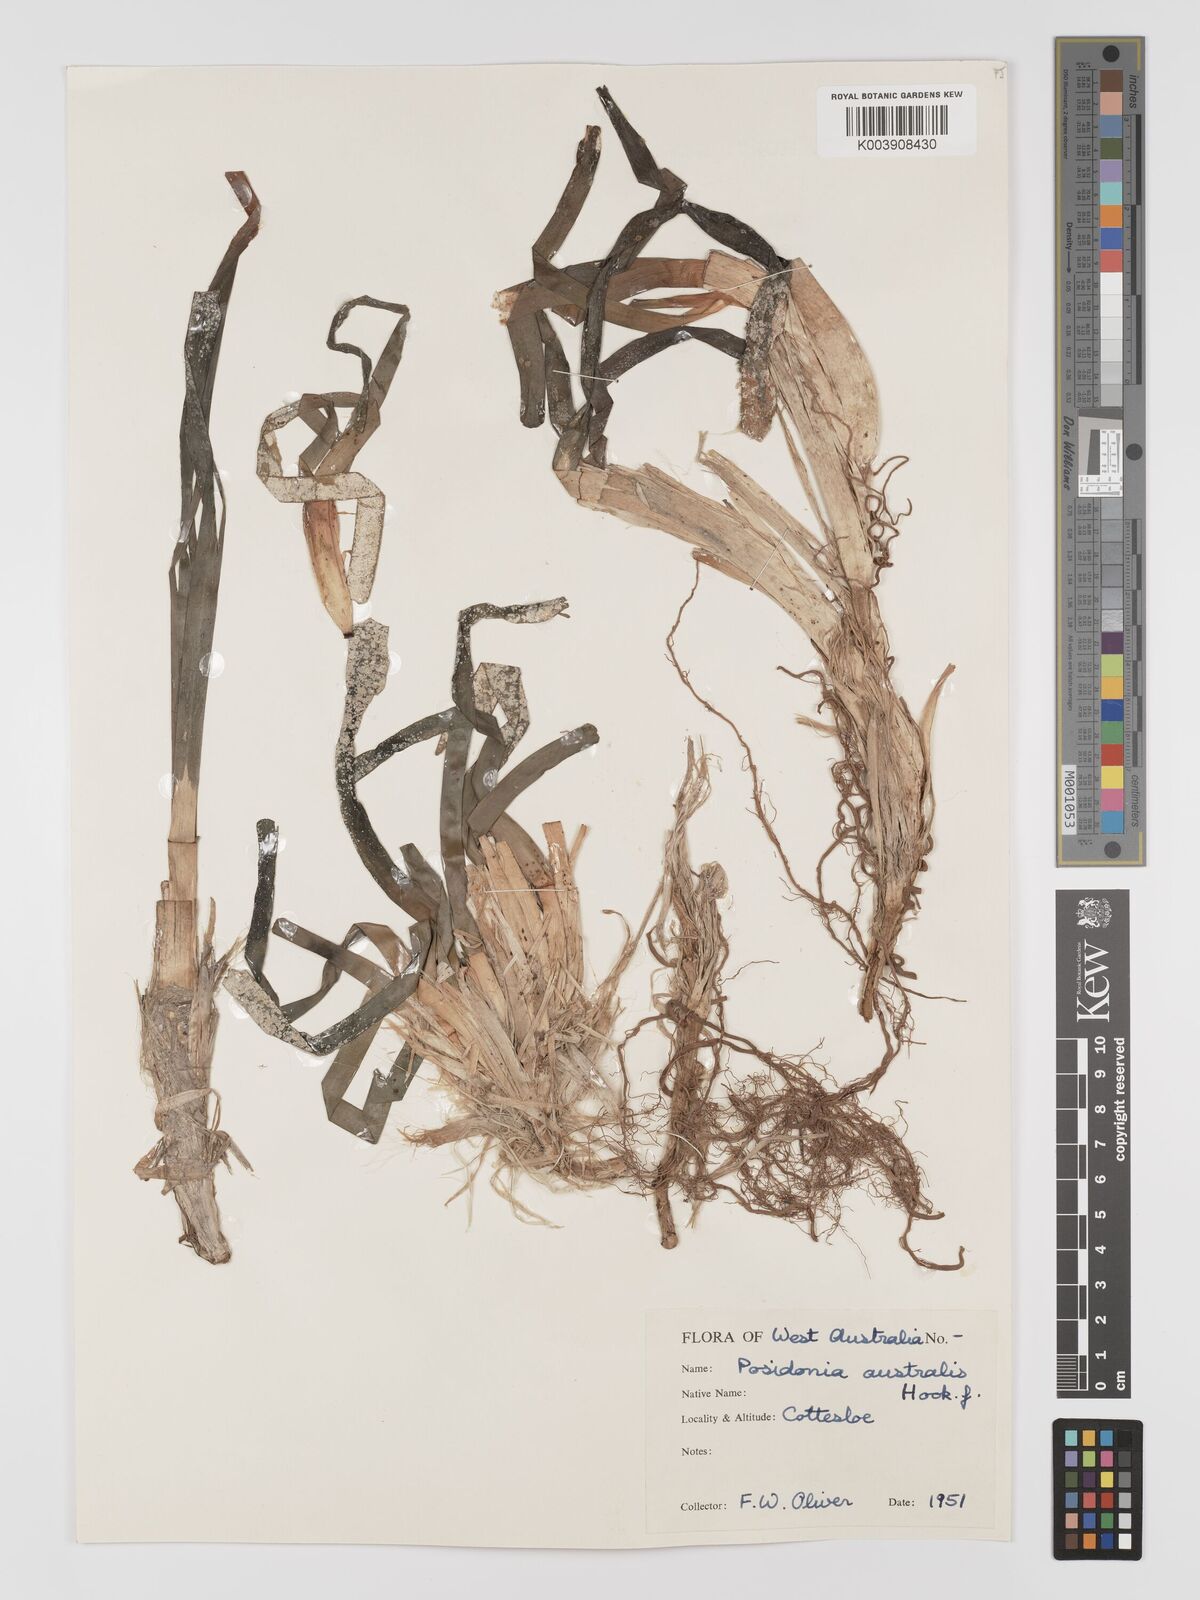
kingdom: Plantae
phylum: Tracheophyta
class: Liliopsida
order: Alismatales
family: Posidoniaceae
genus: Posidonia
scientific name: Posidonia australis
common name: Species code: pa
